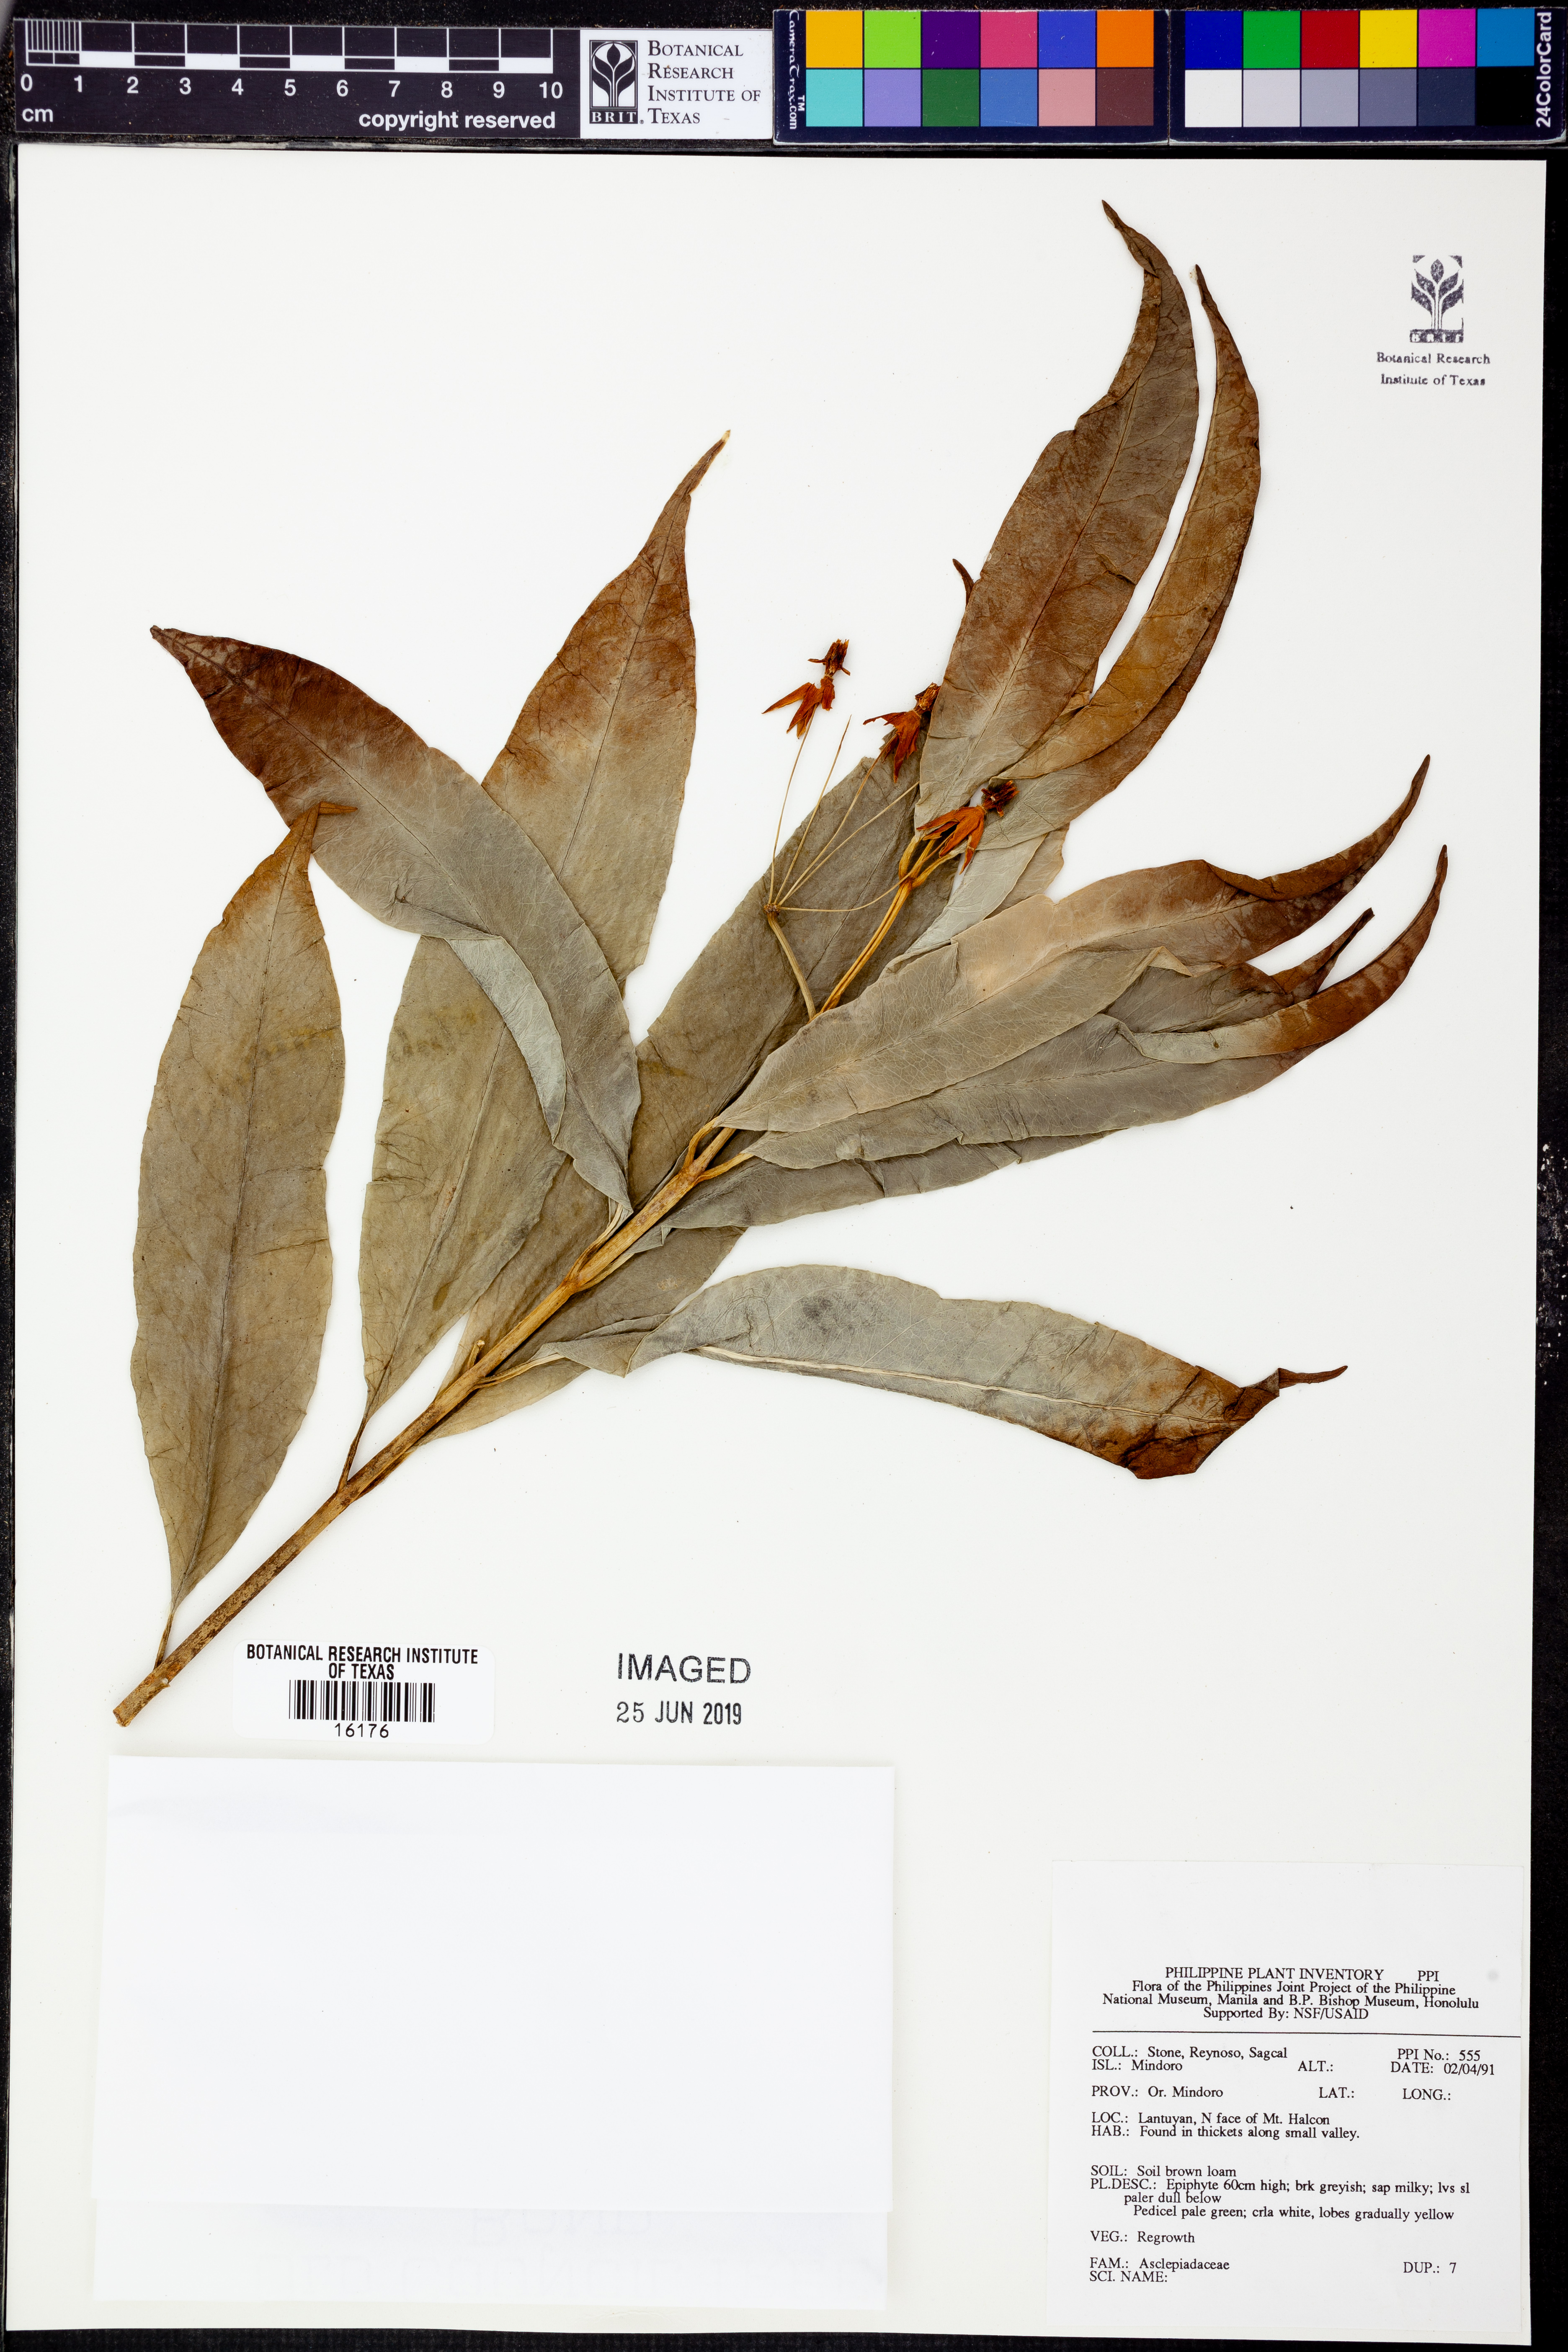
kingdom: Plantae
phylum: Tracheophyta
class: Magnoliopsida
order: Gentianales
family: Apocynaceae
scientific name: Apocynaceae
